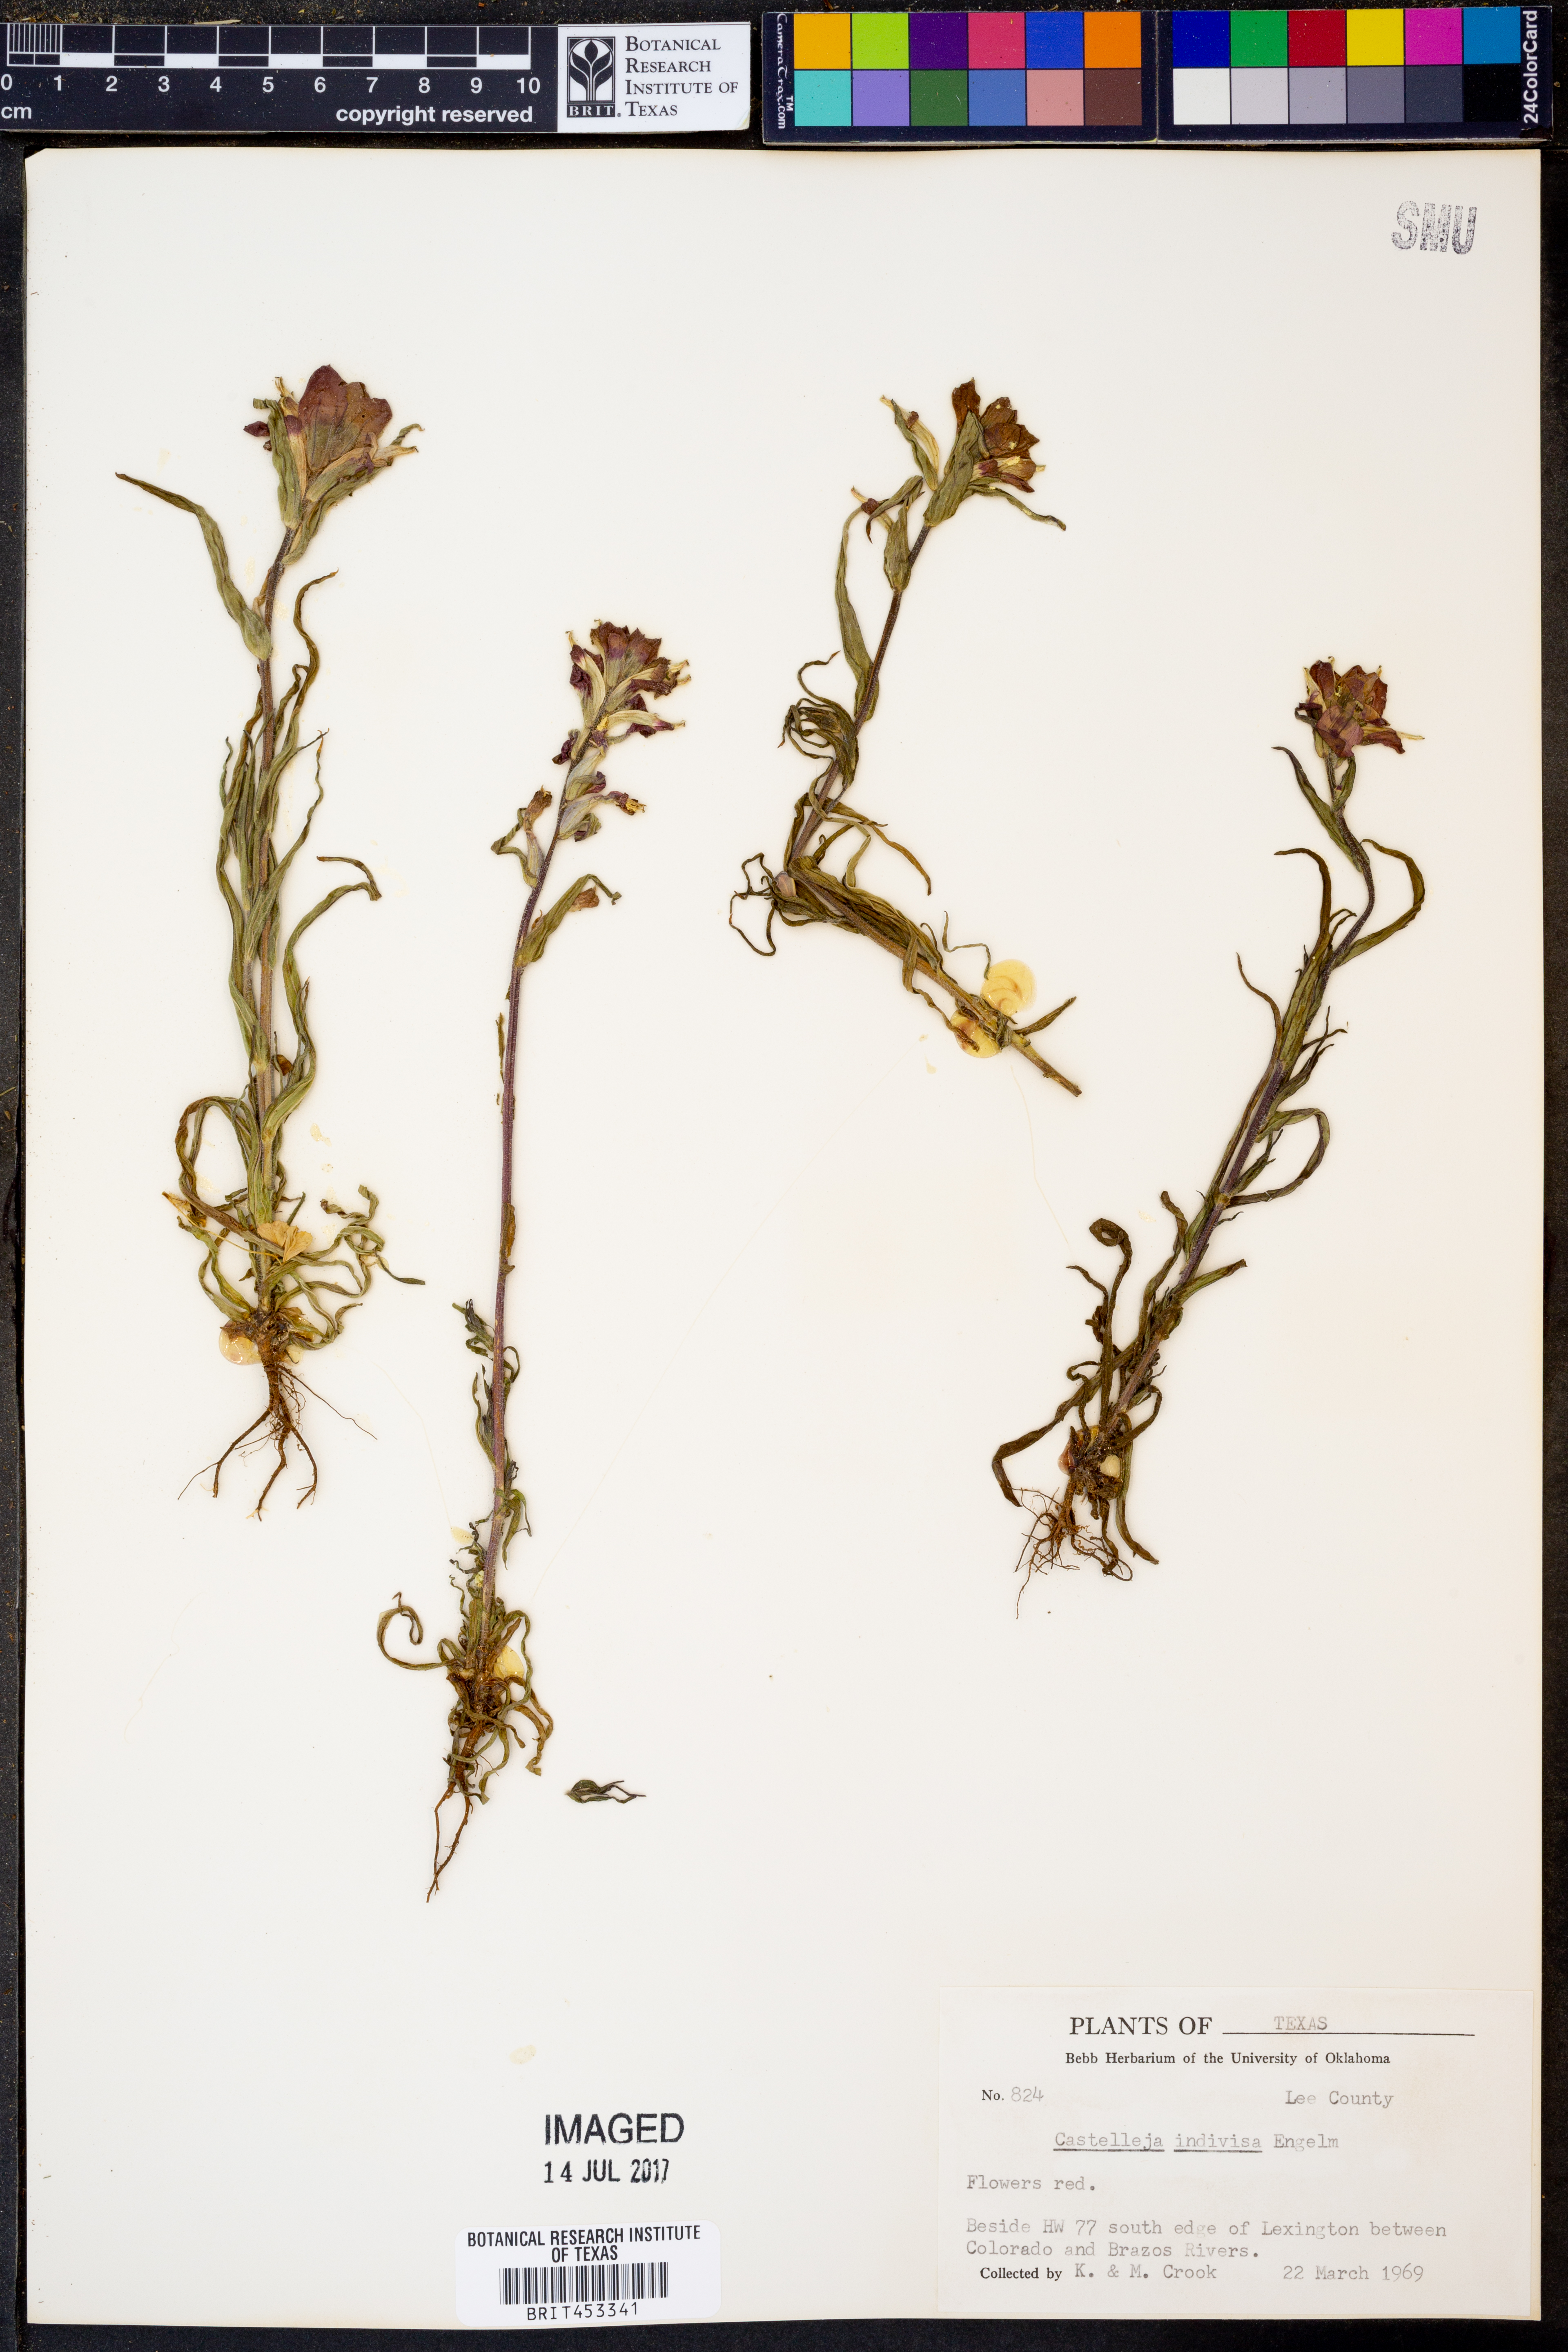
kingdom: Plantae
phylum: Tracheophyta
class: Magnoliopsida
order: Lamiales
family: Orobanchaceae
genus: Castilleja
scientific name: Castilleja indivisa
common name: Texas paintbrush
